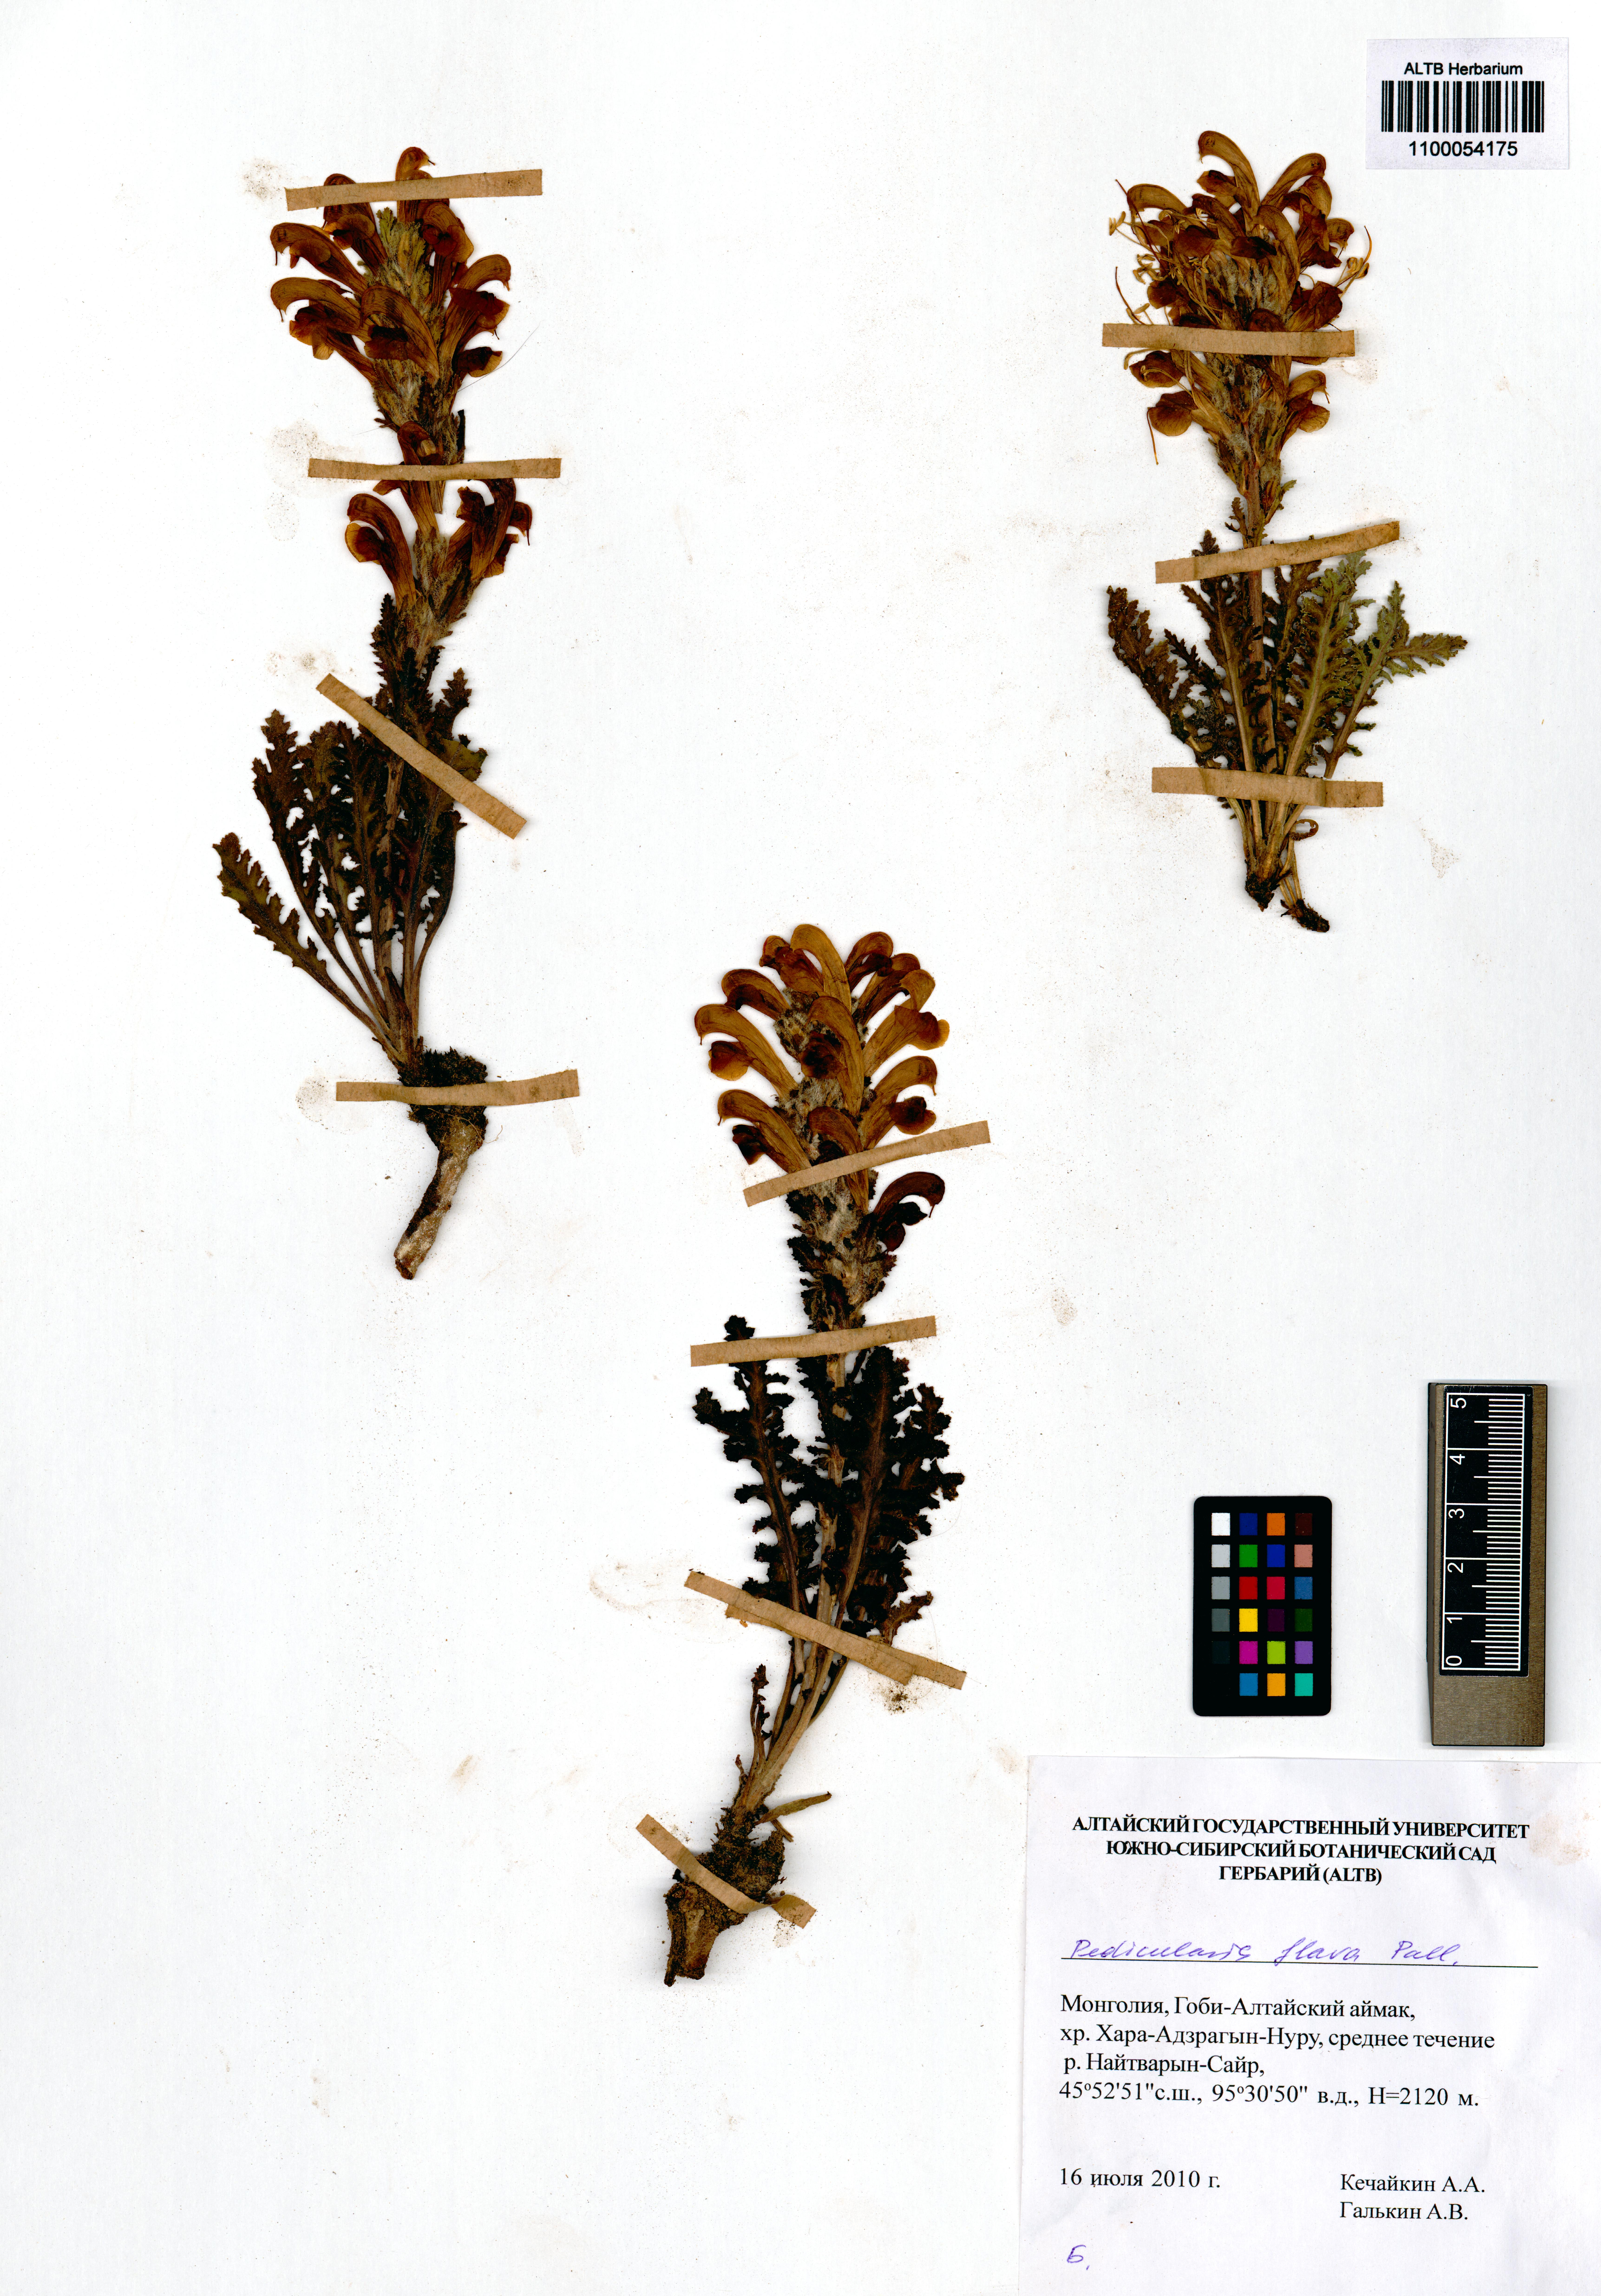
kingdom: Plantae
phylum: Tracheophyta
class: Magnoliopsida
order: Lamiales
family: Orobanchaceae
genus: Pedicularis
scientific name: Pedicularis flava
